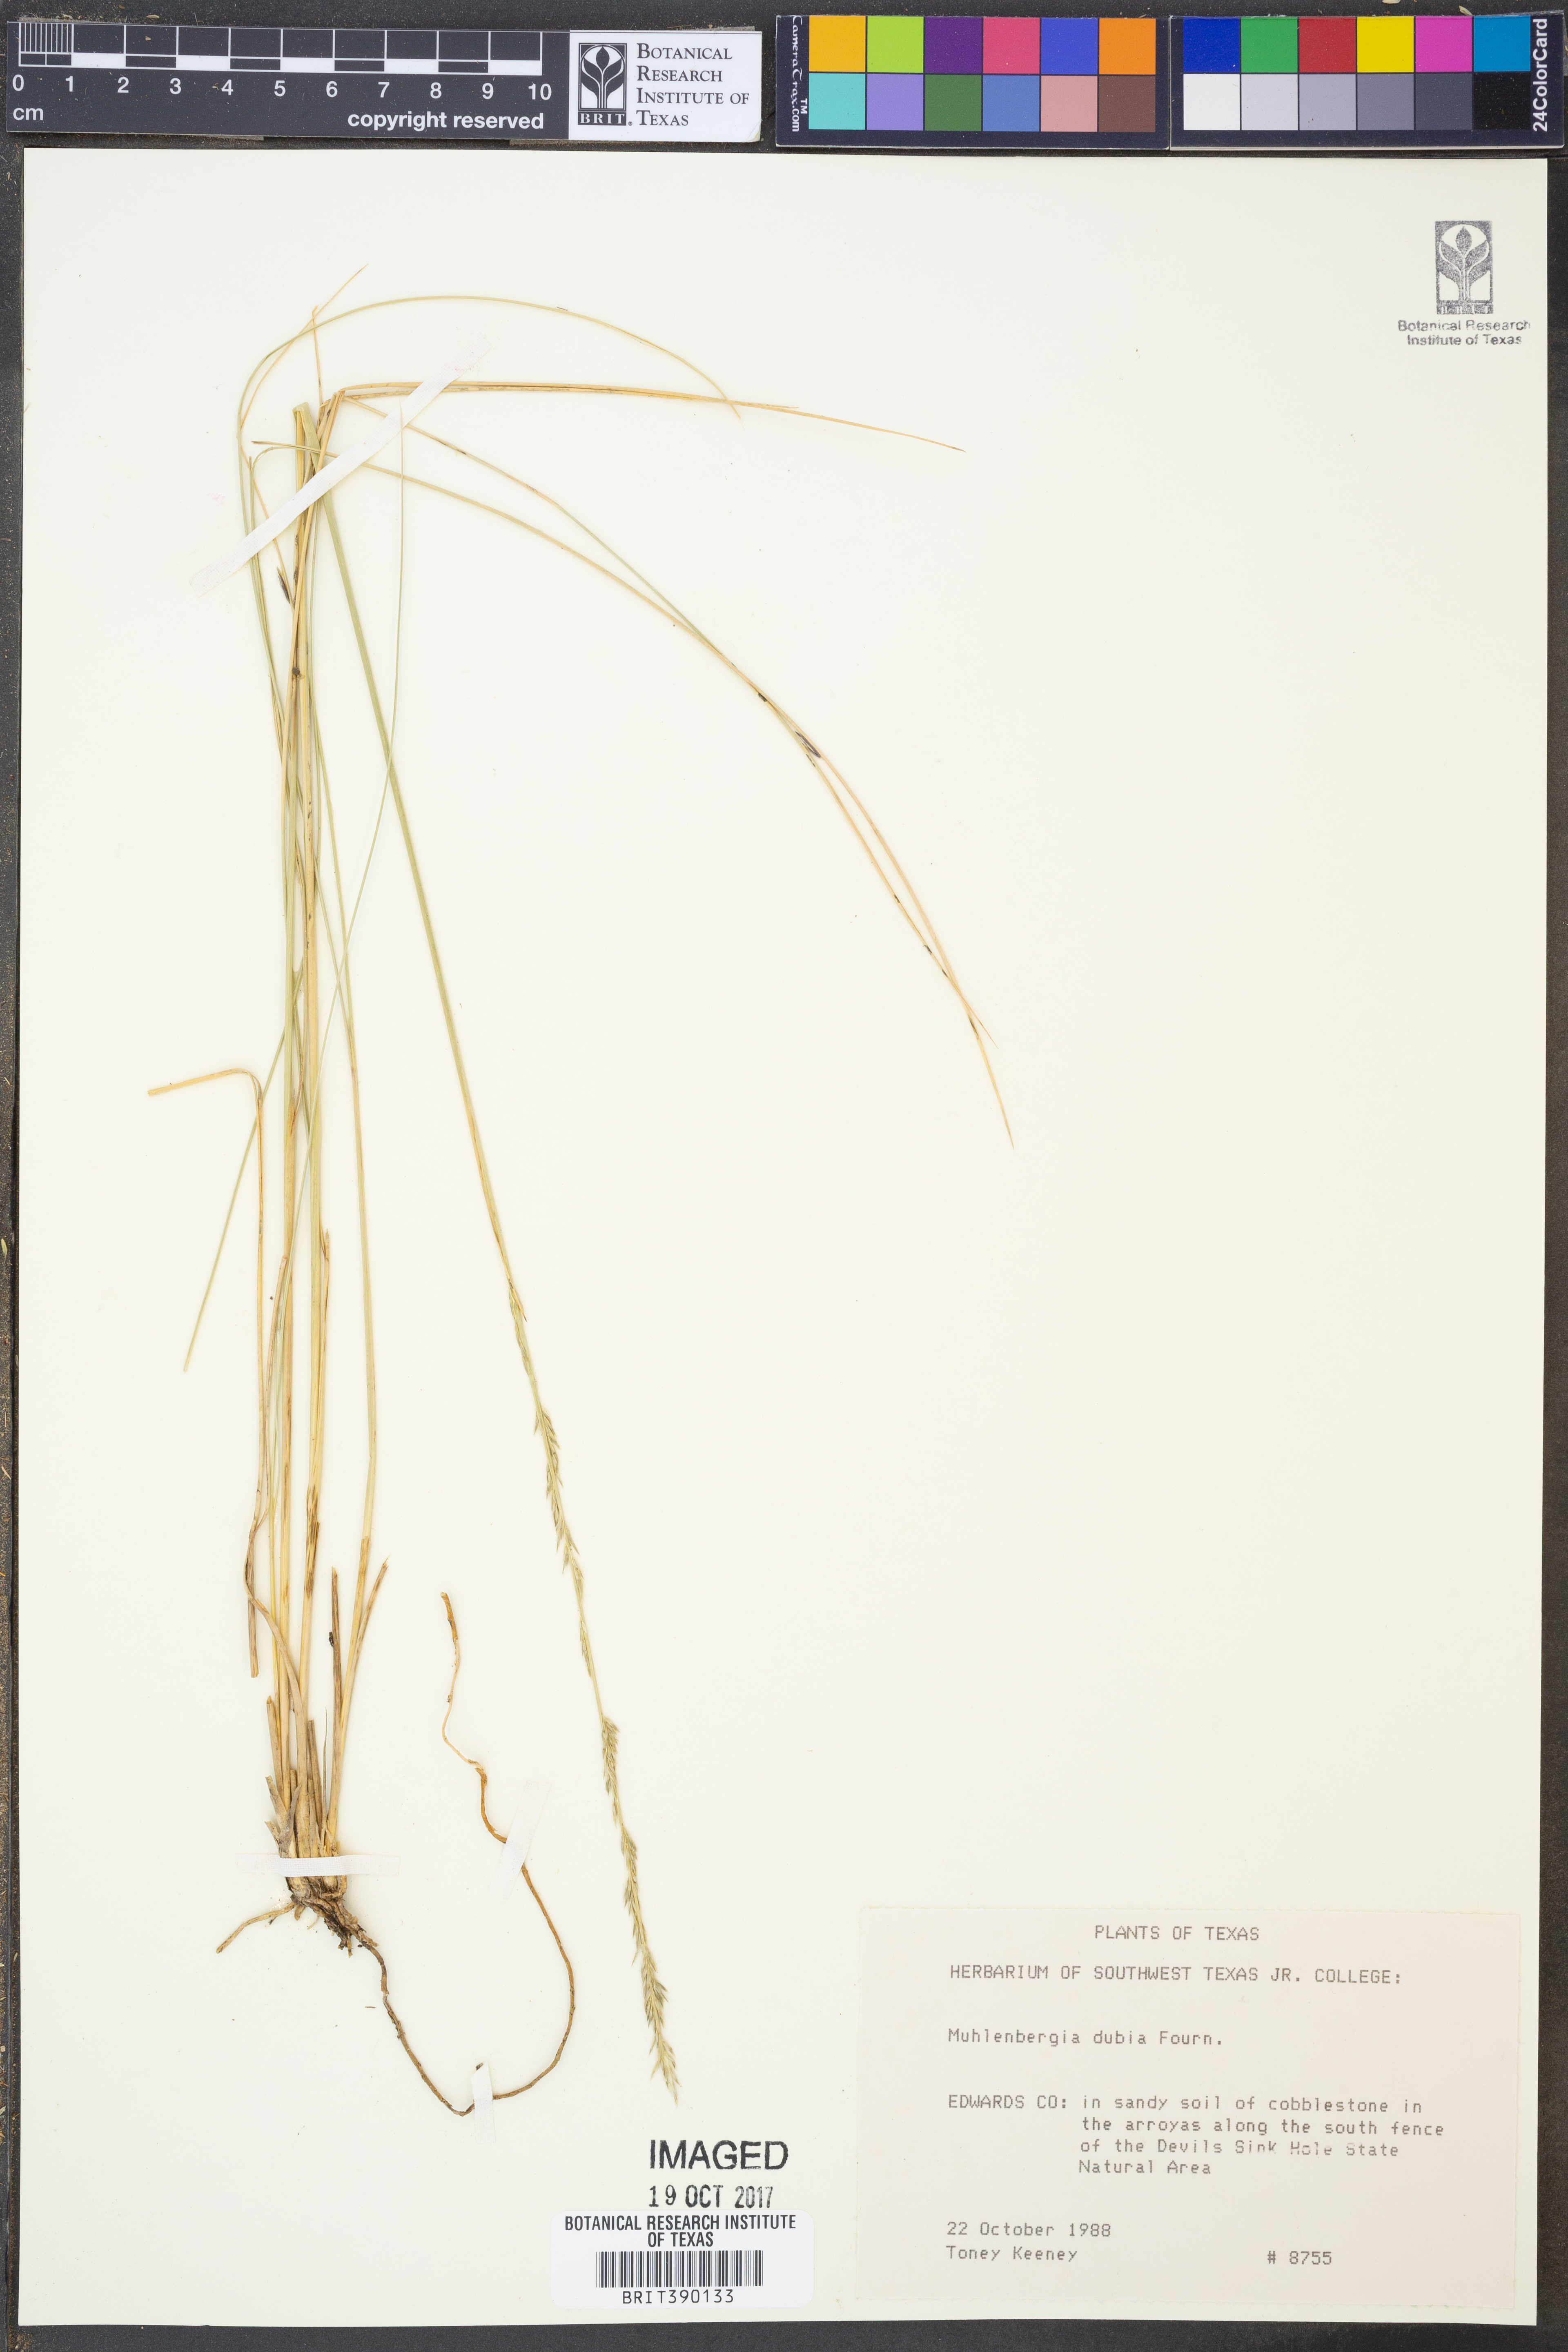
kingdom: Plantae
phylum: Tracheophyta
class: Liliopsida
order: Poales
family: Poaceae
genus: Muhlenbergia
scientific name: Muhlenbergia dubia
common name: Pine muhly
